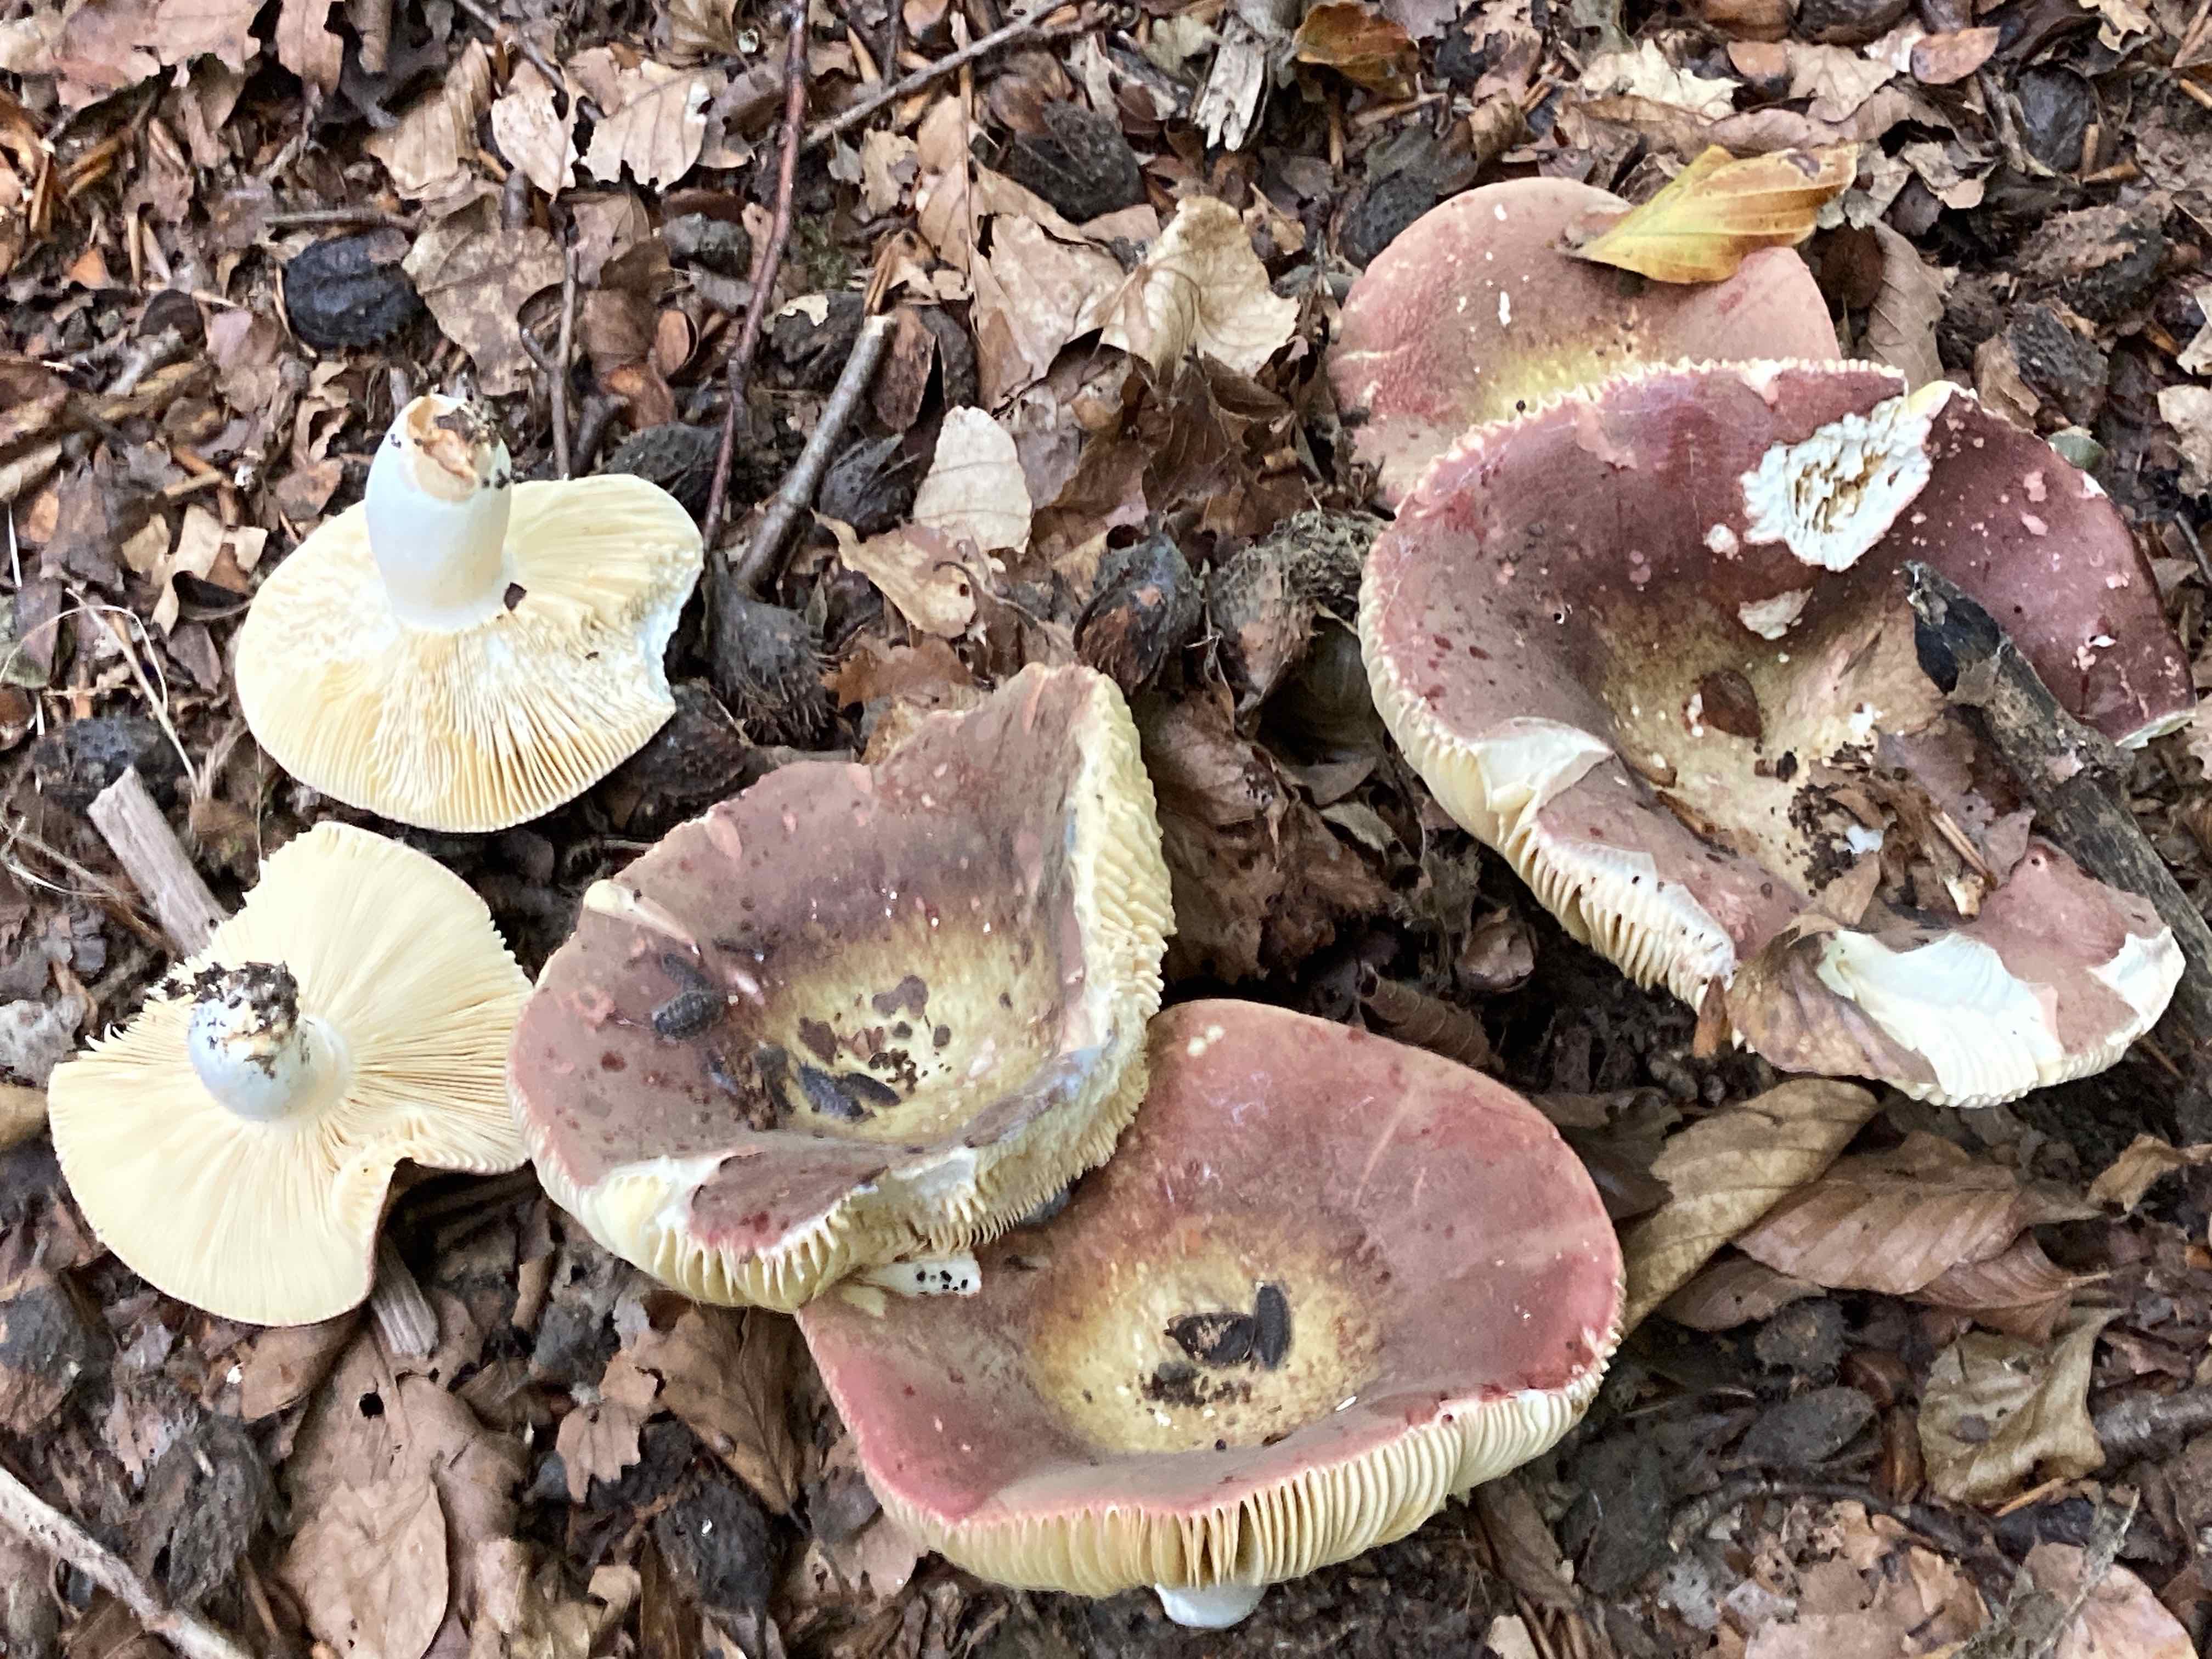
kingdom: Fungi
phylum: Basidiomycota
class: Agaricomycetes
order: Russulales
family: Russulaceae
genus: Russula
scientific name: Russula olivacea
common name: stor skørhat
